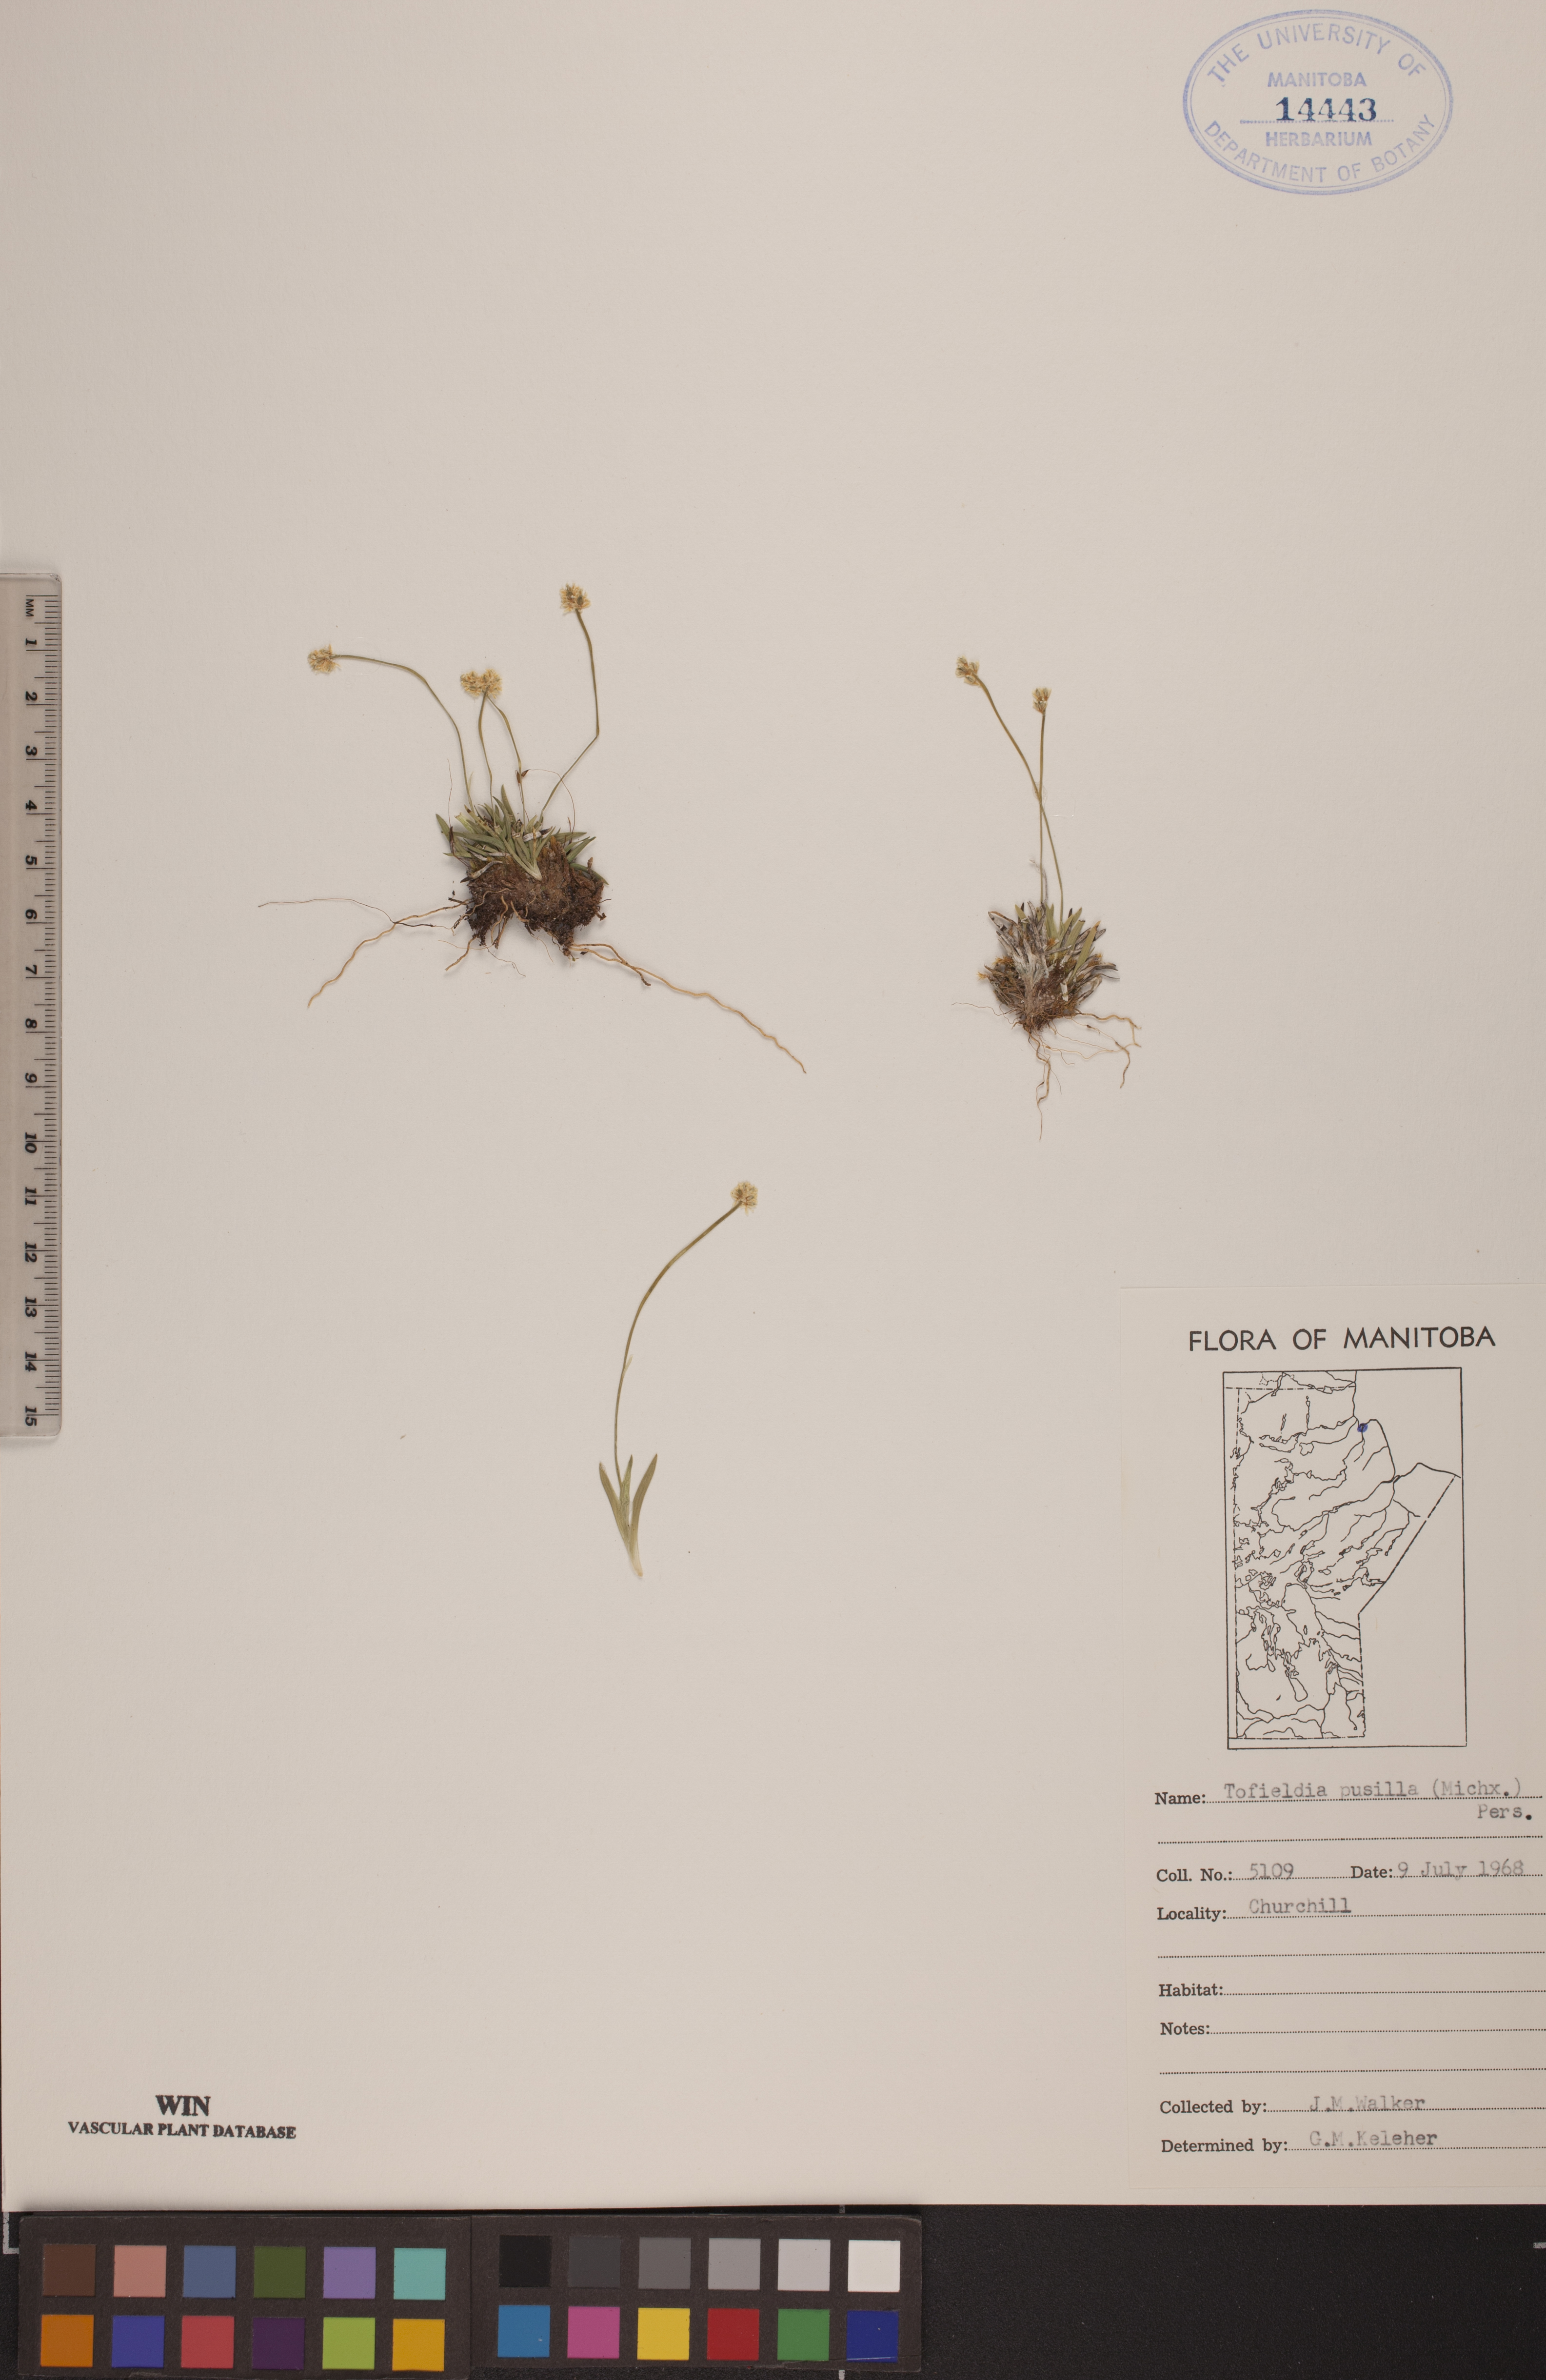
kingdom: Plantae
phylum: Tracheophyta
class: Liliopsida
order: Alismatales
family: Tofieldiaceae
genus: Tofieldia
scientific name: Tofieldia pusilla
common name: Scottish false asphodel
